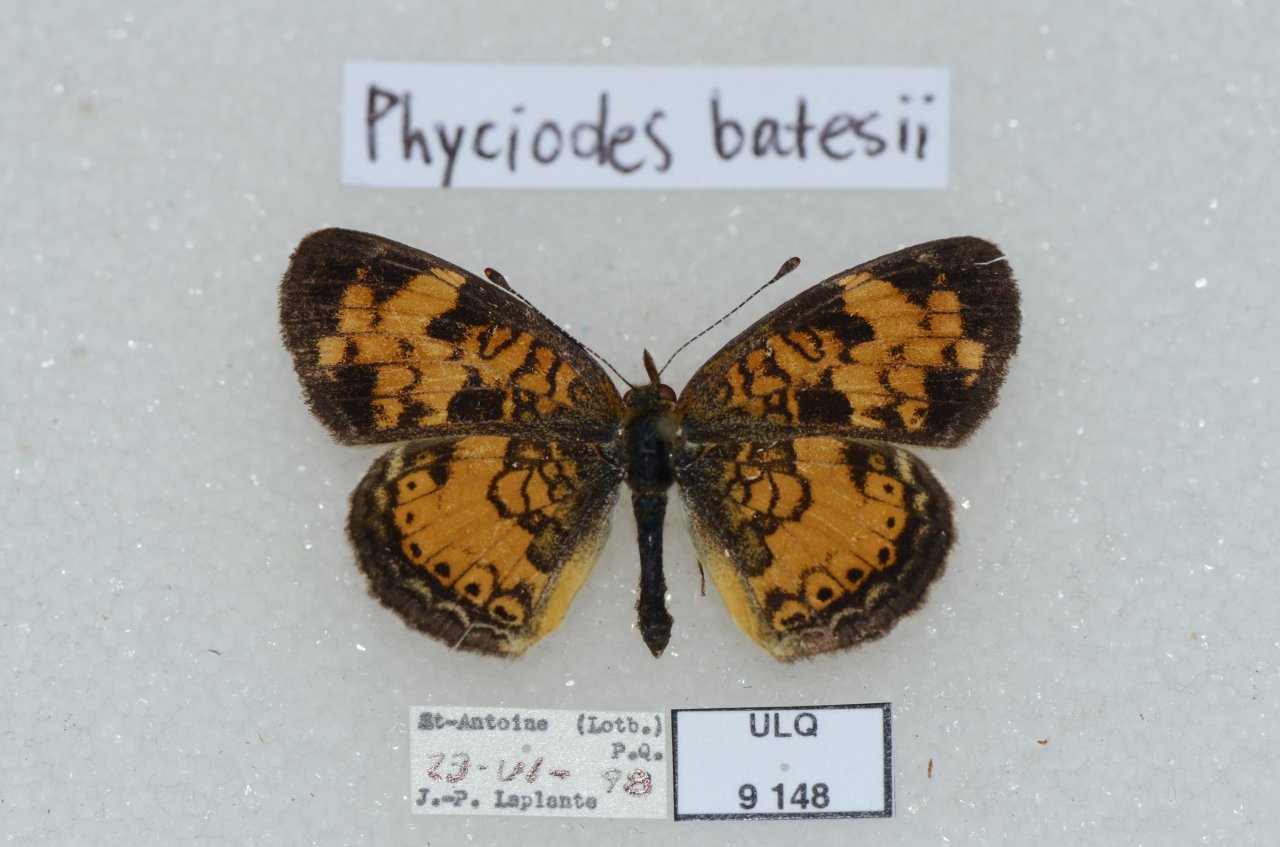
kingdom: Animalia
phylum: Arthropoda
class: Insecta
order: Lepidoptera
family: Nymphalidae
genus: Phyciodes
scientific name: Phyciodes tharos
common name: Northern Crescent
